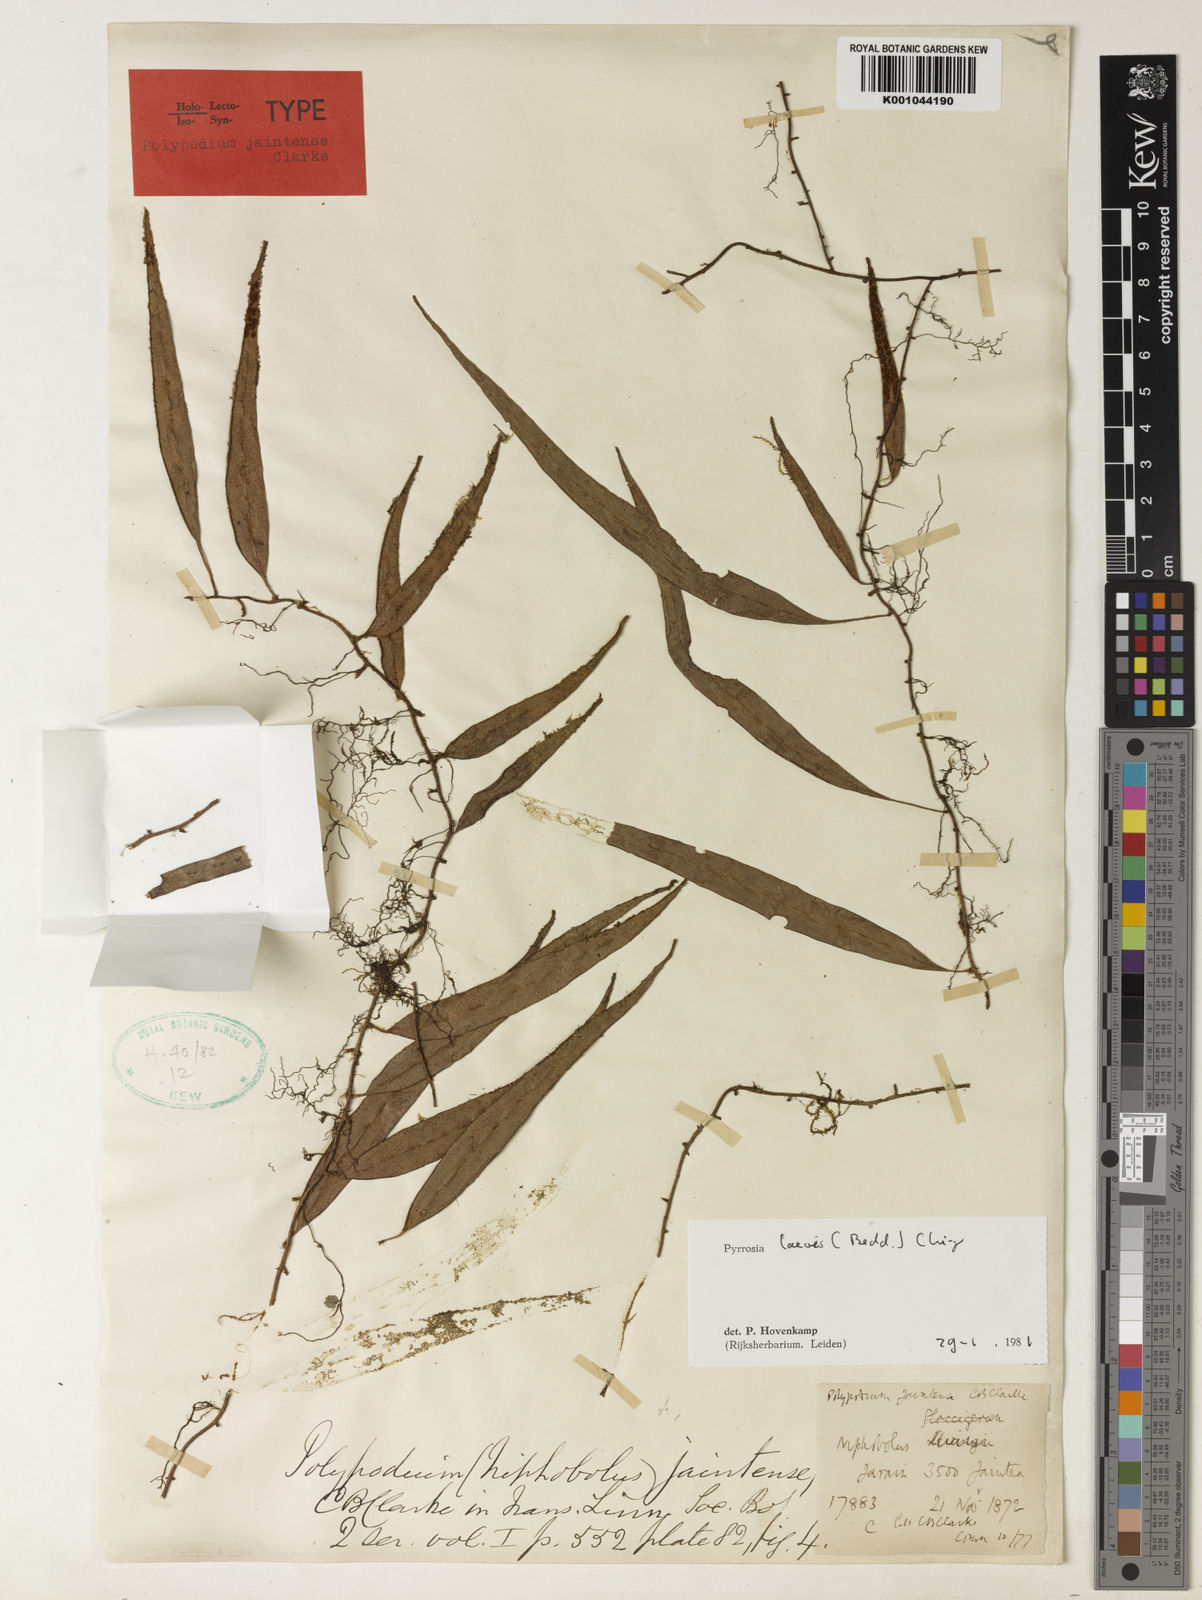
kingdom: Plantae
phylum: Tracheophyta
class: Polypodiopsida
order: Polypodiales
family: Polypodiaceae
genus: Pyrrosia
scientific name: Pyrrosia laevis
